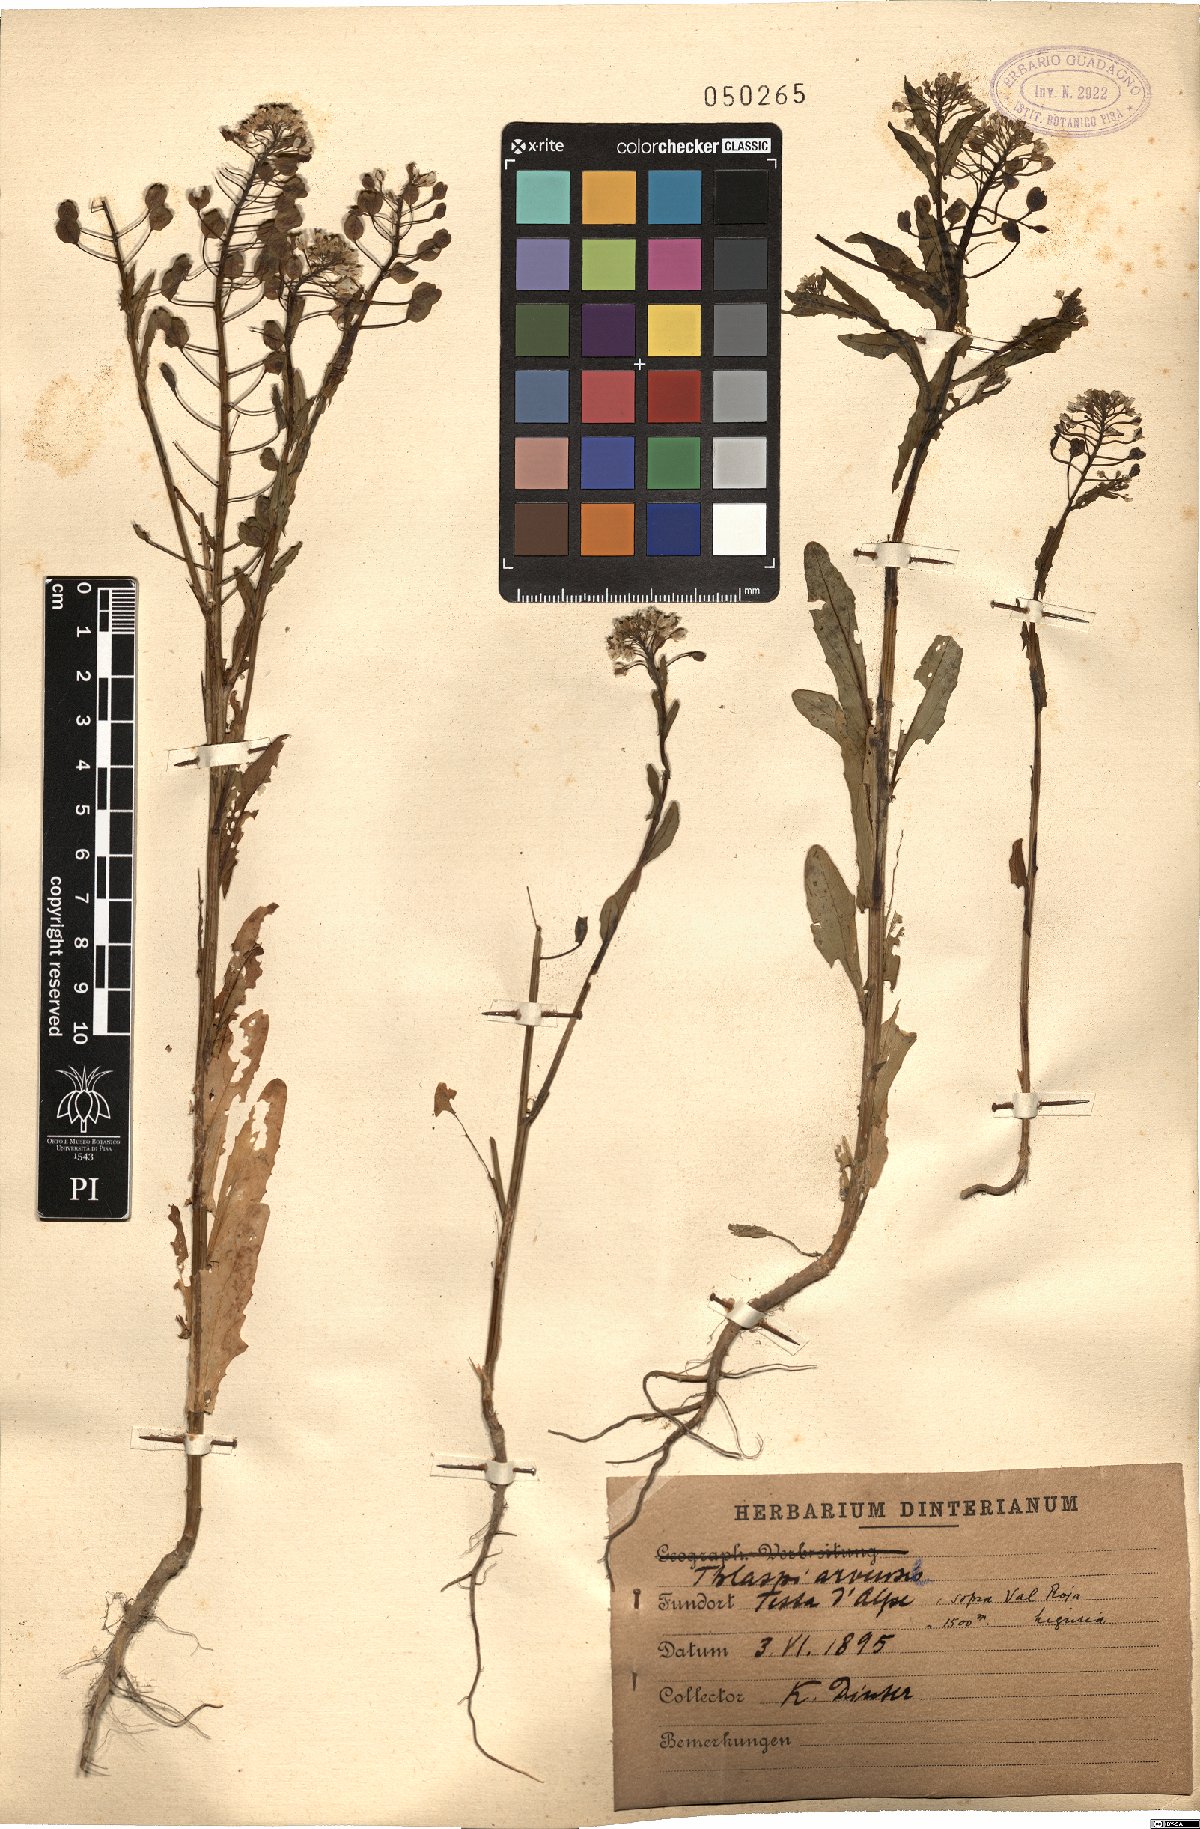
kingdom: Plantae
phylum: Tracheophyta
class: Magnoliopsida
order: Brassicales
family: Brassicaceae
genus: Thlaspi
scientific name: Thlaspi arvense
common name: Field pennycress
